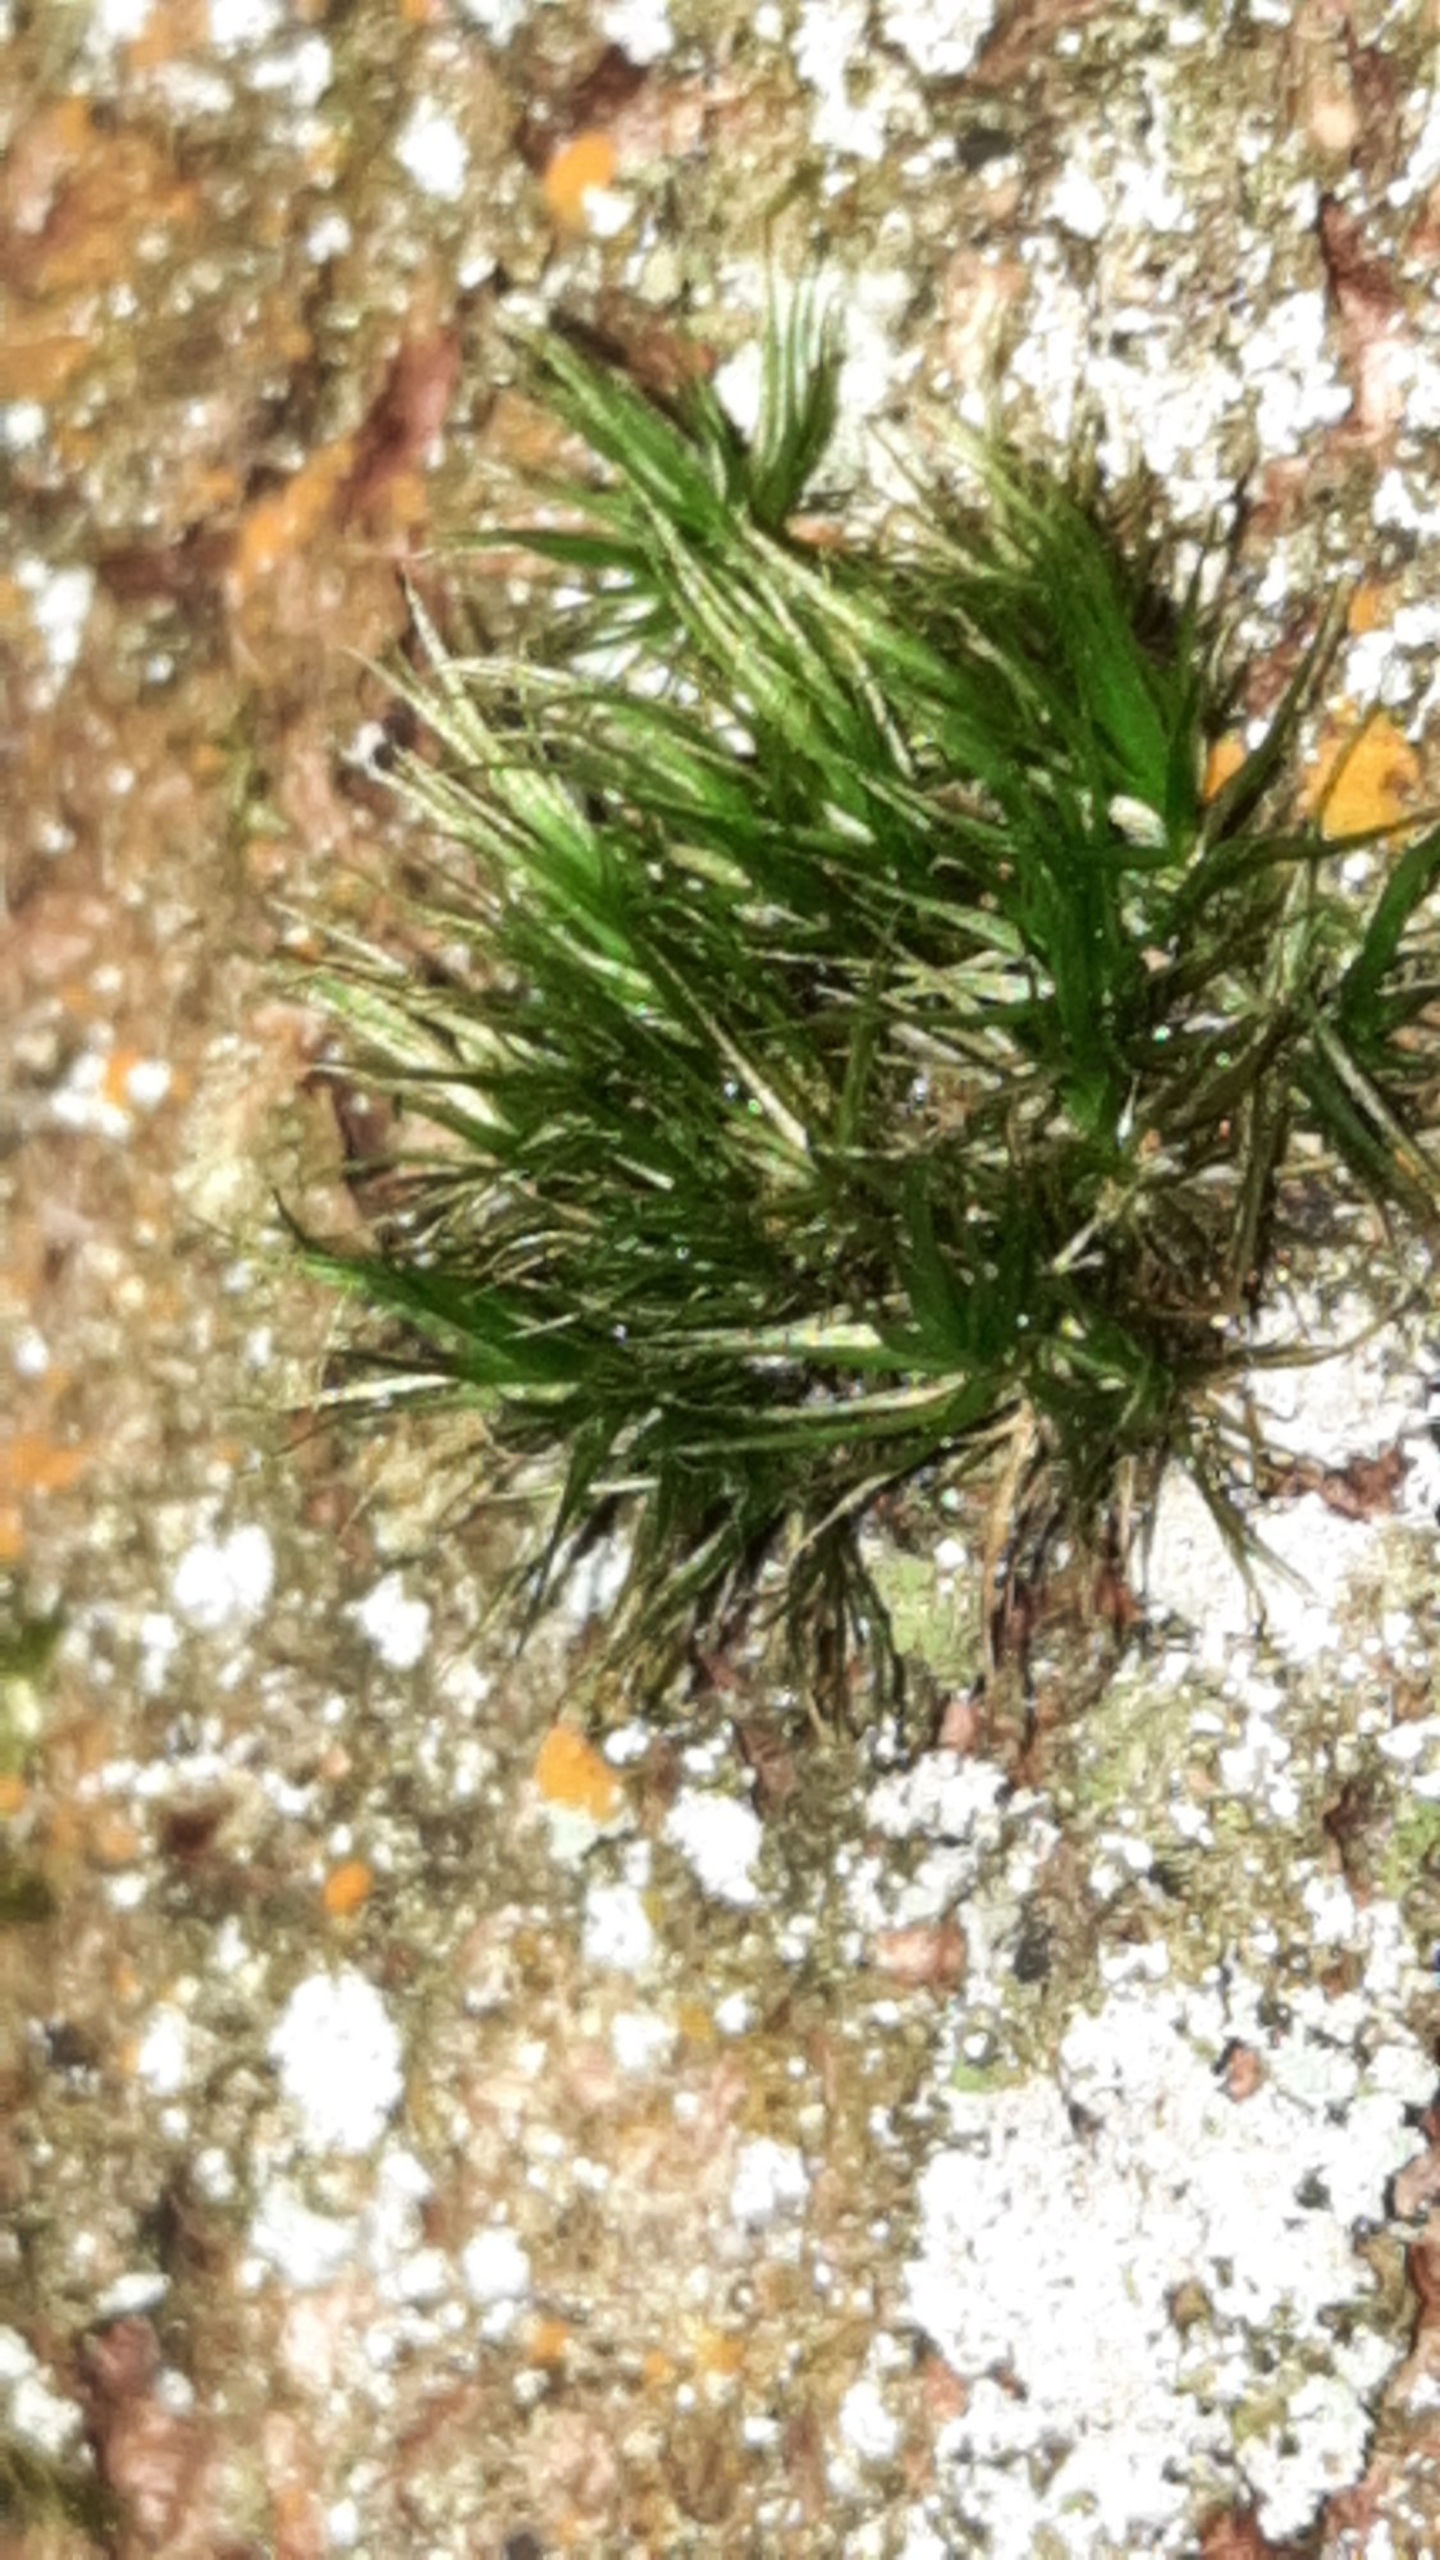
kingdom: Plantae
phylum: Bryophyta
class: Bryopsida
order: Dicranales
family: Dicranaceae
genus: Orthodicranum
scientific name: Orthodicranum tauricum
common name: Skør tyndvinge
